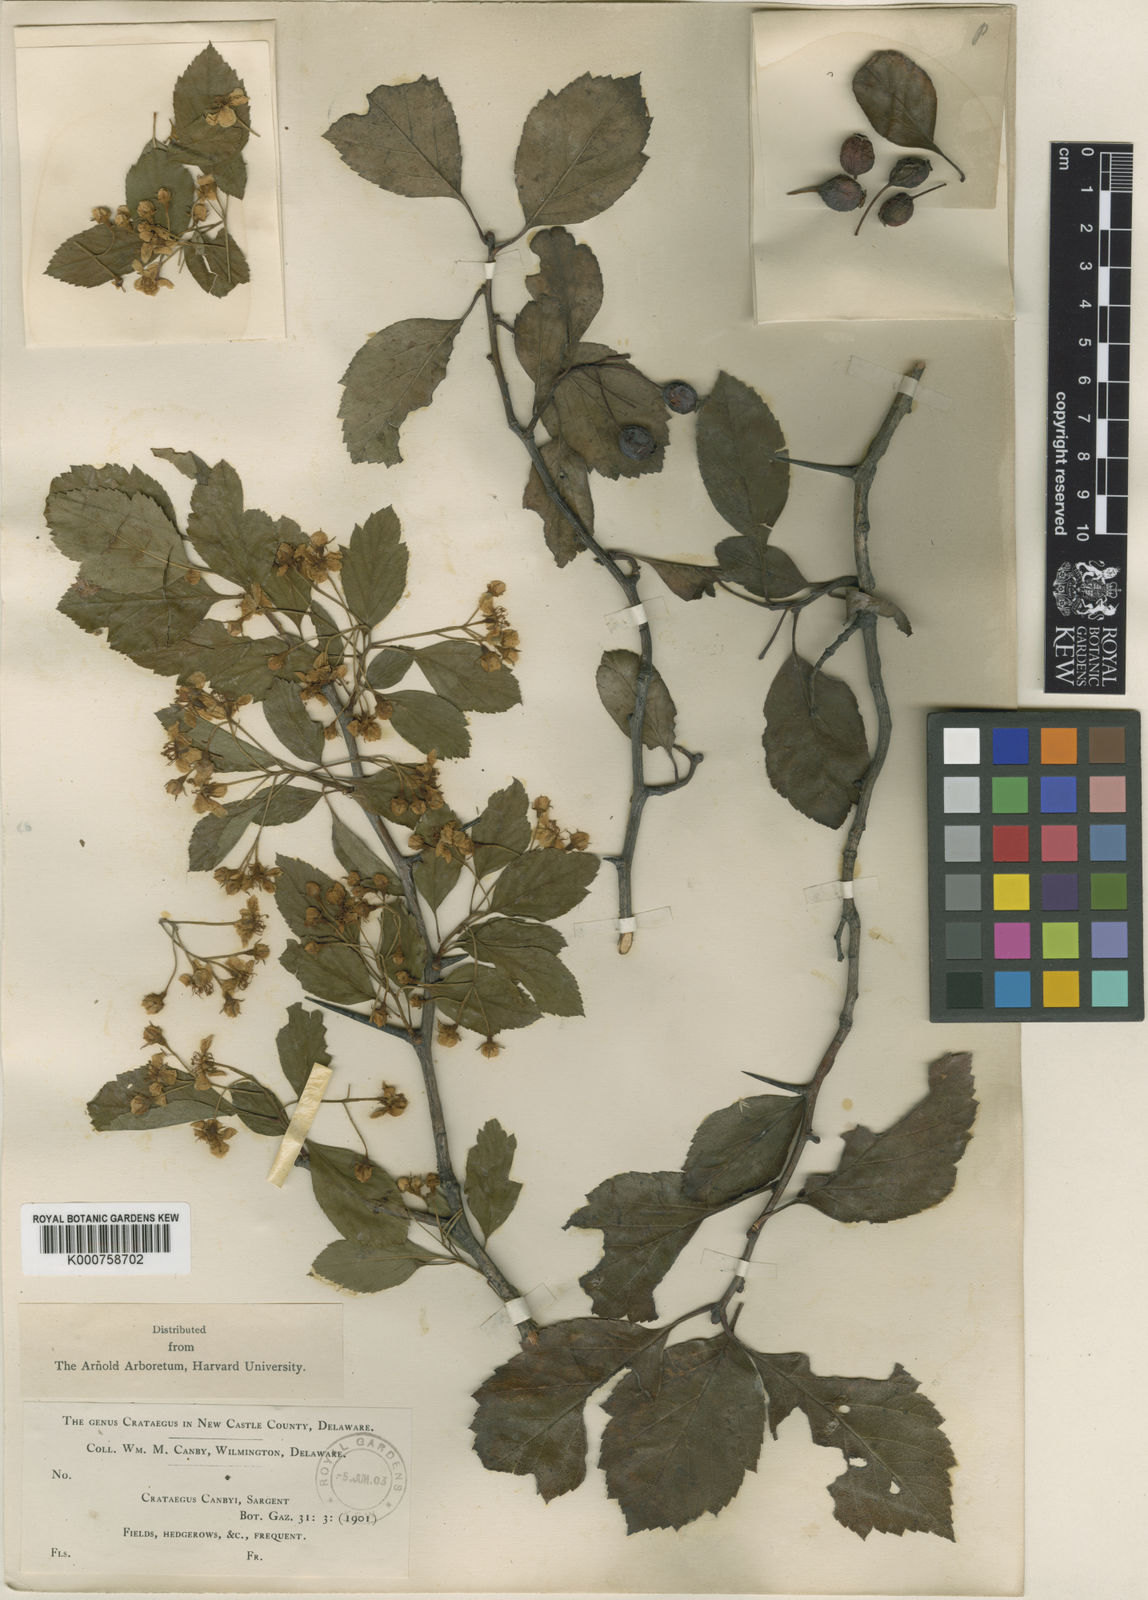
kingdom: Plantae
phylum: Tracheophyta
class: Magnoliopsida
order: Rosales
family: Rosaceae
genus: Crataegus
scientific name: Crataegus crus-galli
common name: Cockspurthorn
